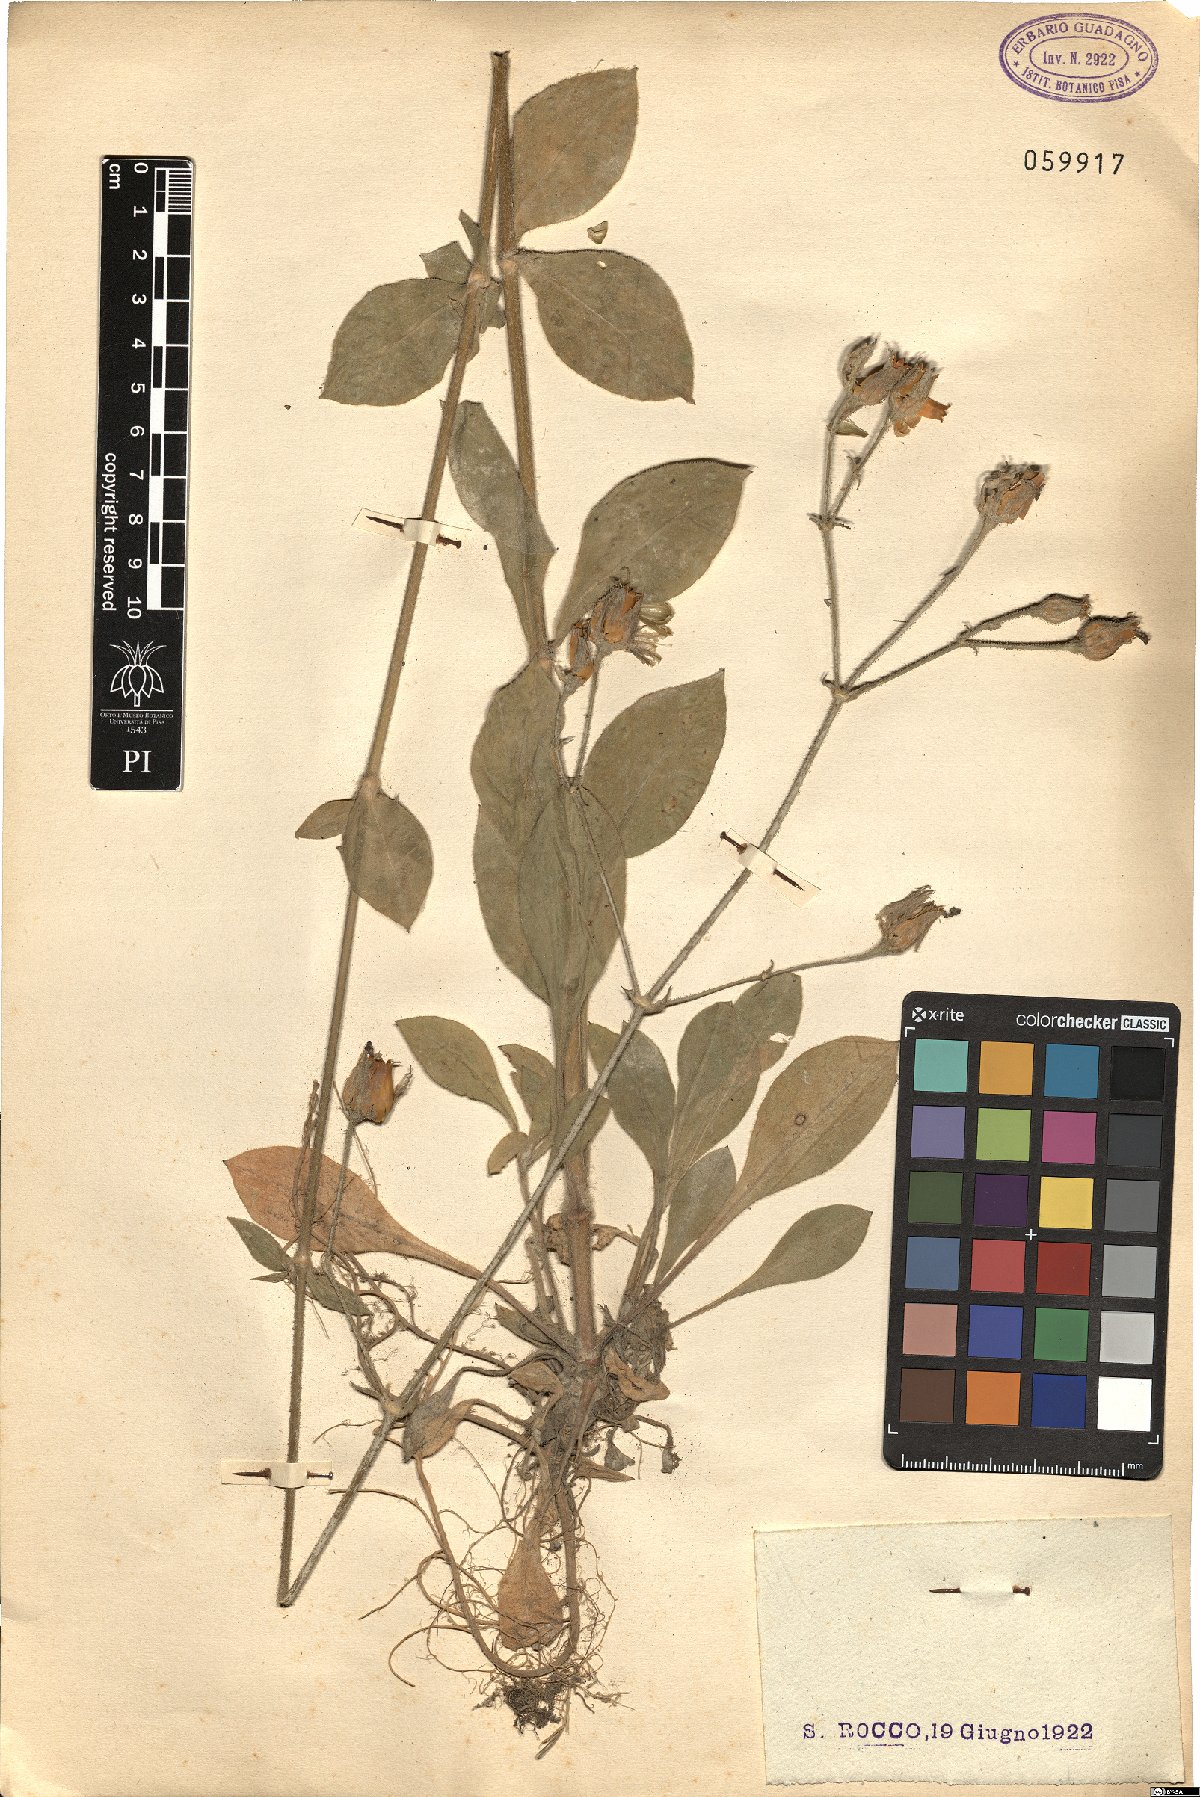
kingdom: Plantae
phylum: Tracheophyta
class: Magnoliopsida
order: Caryophyllales
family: Caryophyllaceae
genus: Silene
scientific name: Silene
